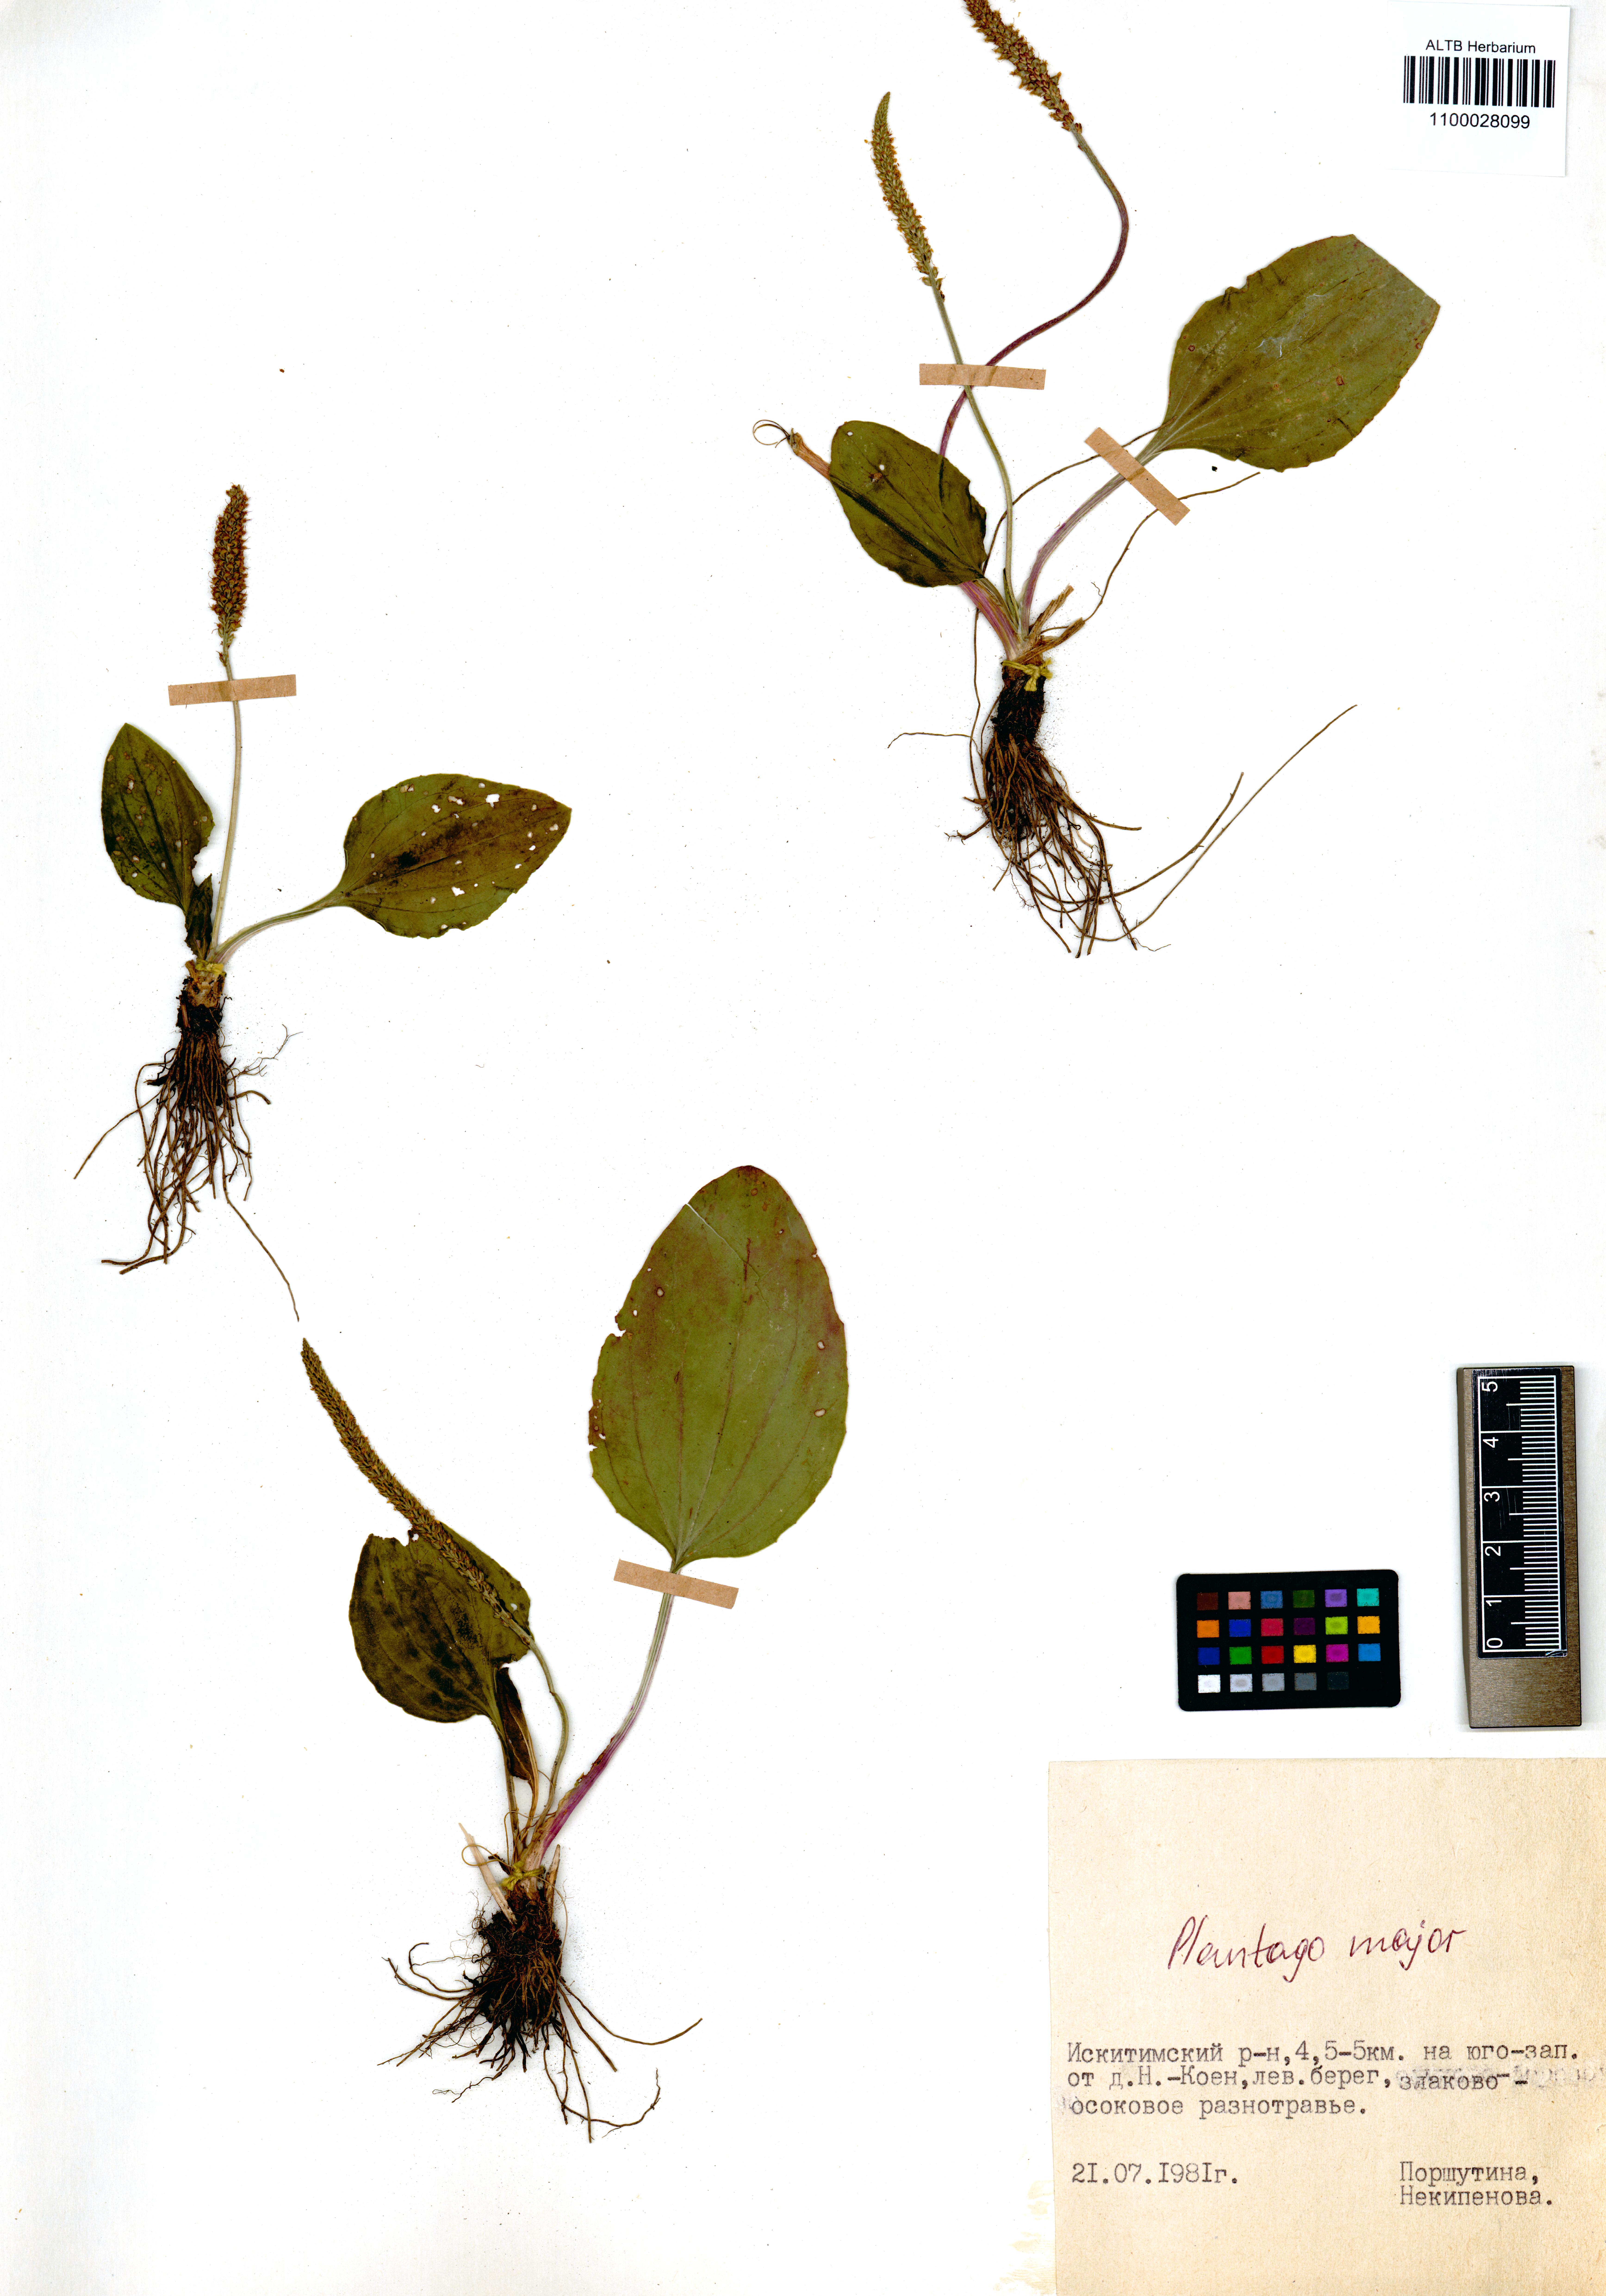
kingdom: Plantae
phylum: Tracheophyta
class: Magnoliopsida
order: Lamiales
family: Plantaginaceae
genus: Plantago
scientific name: Plantago major
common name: Common plantain
